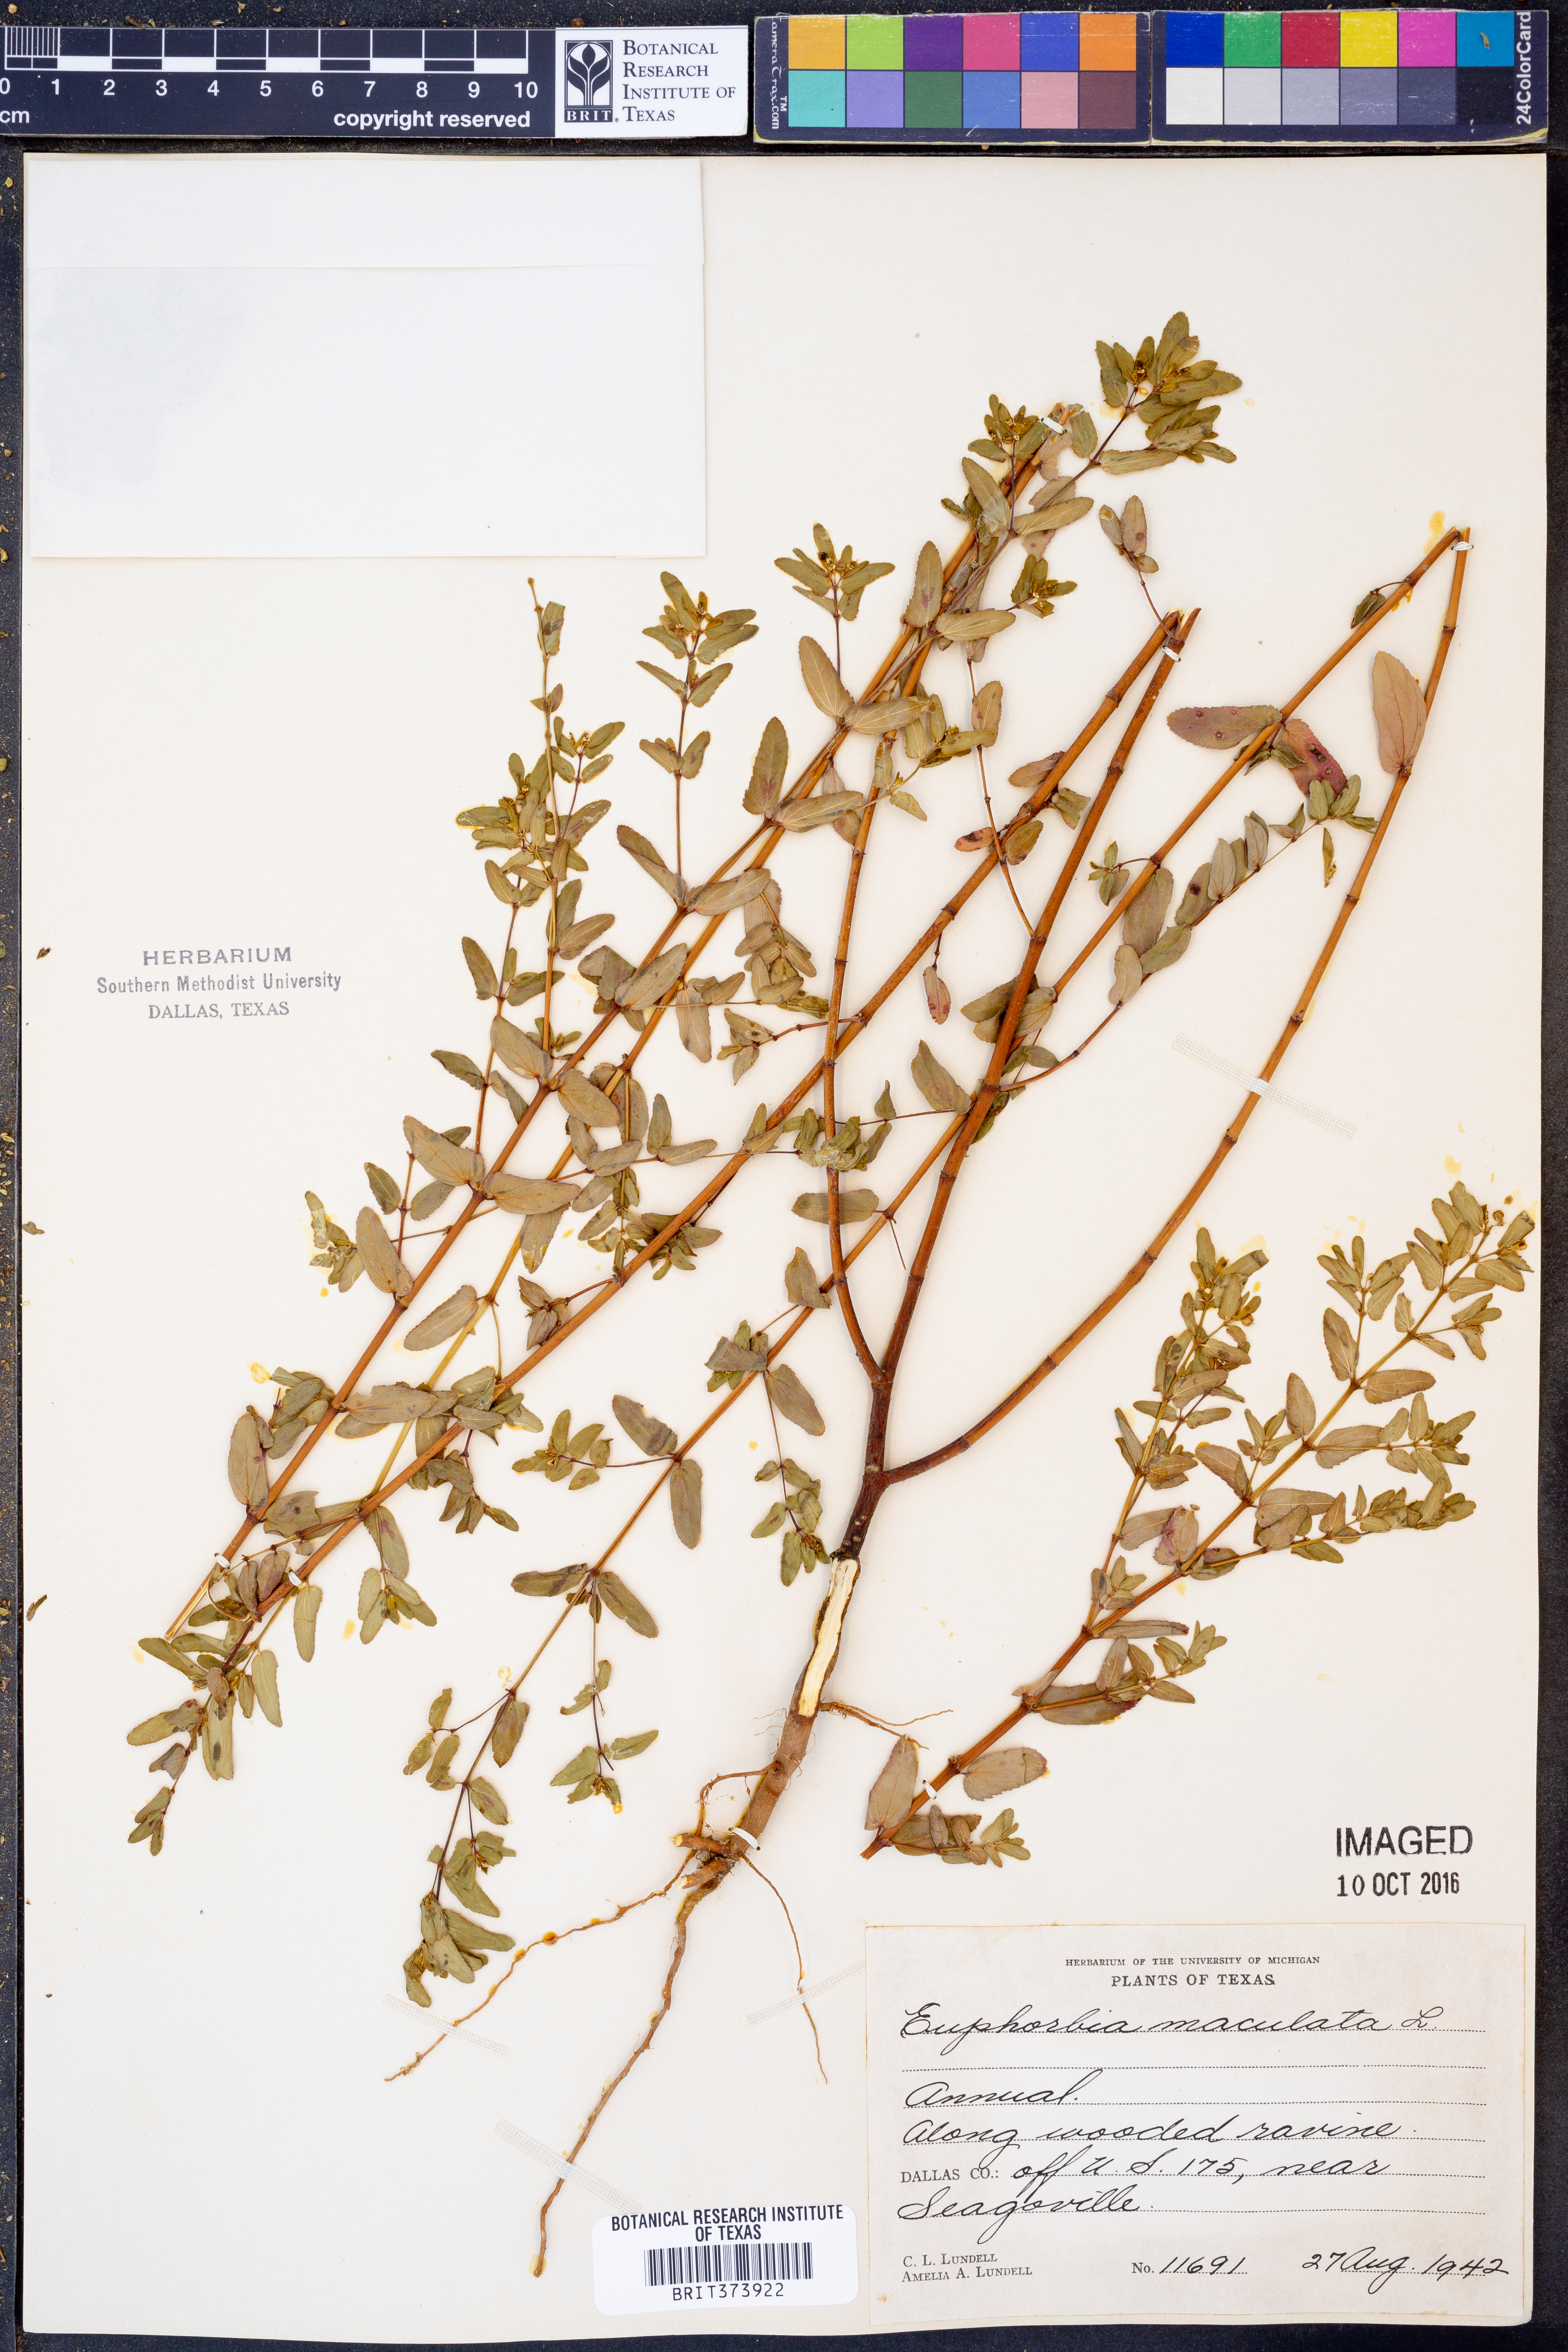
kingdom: Plantae
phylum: Tracheophyta
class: Magnoliopsida
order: Malpighiales
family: Euphorbiaceae
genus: Euphorbia
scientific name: Euphorbia maculata
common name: Spotted spurge
